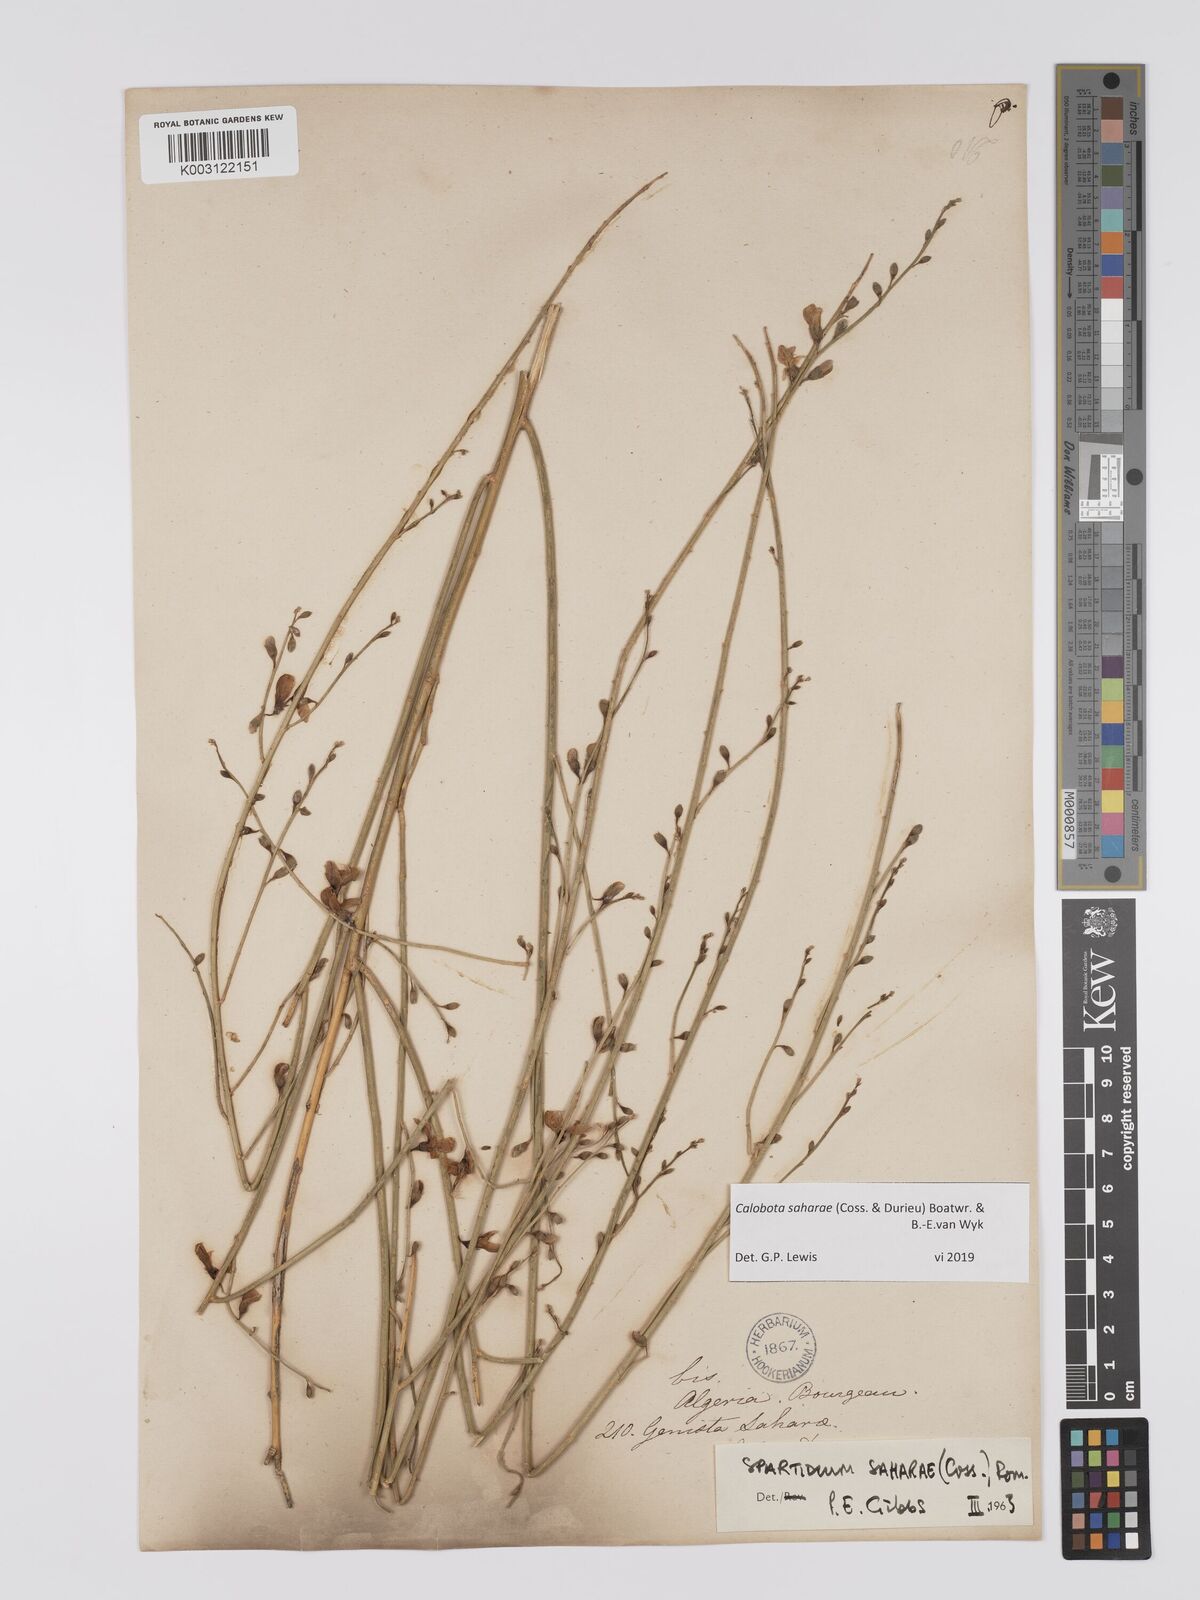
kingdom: Plantae
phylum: Tracheophyta
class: Magnoliopsida
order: Fabales
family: Fabaceae
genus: Calobota
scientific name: Calobota saharae
